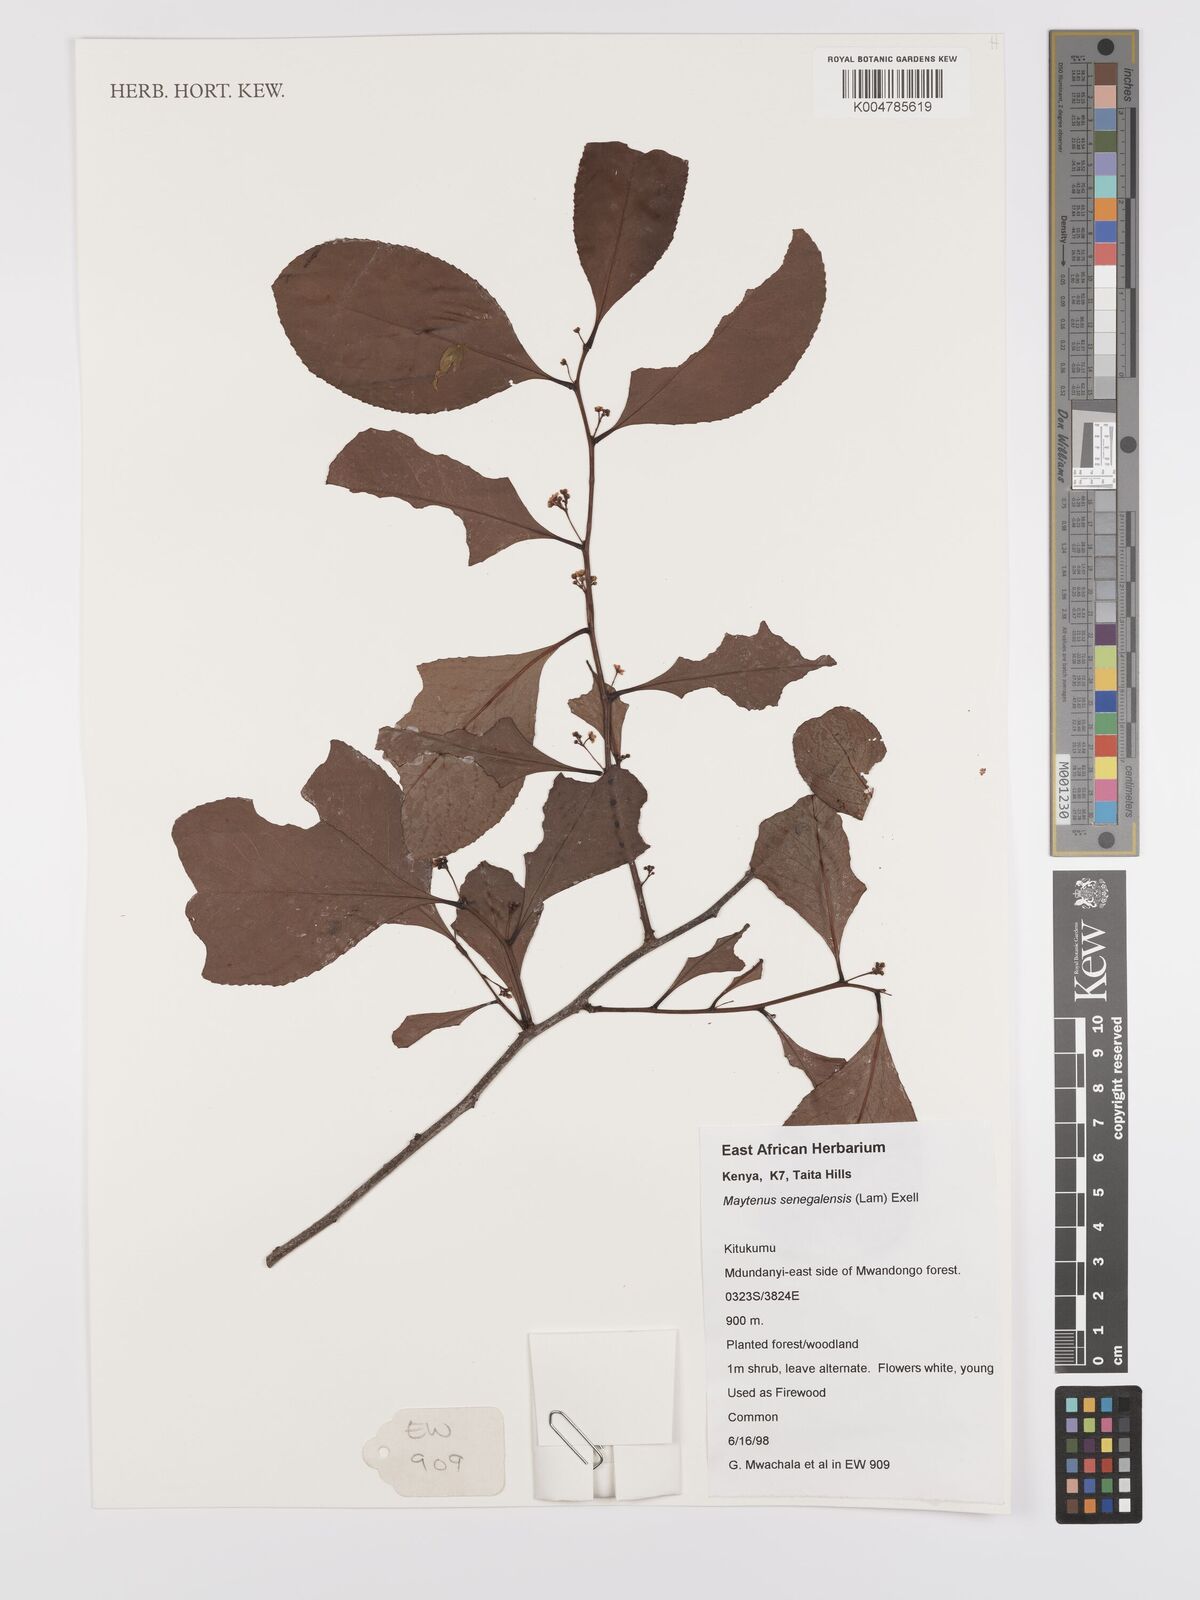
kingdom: Plantae
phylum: Tracheophyta
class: Magnoliopsida
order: Celastrales
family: Celastraceae
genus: Gymnosporia
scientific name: Gymnosporia senegalensis
